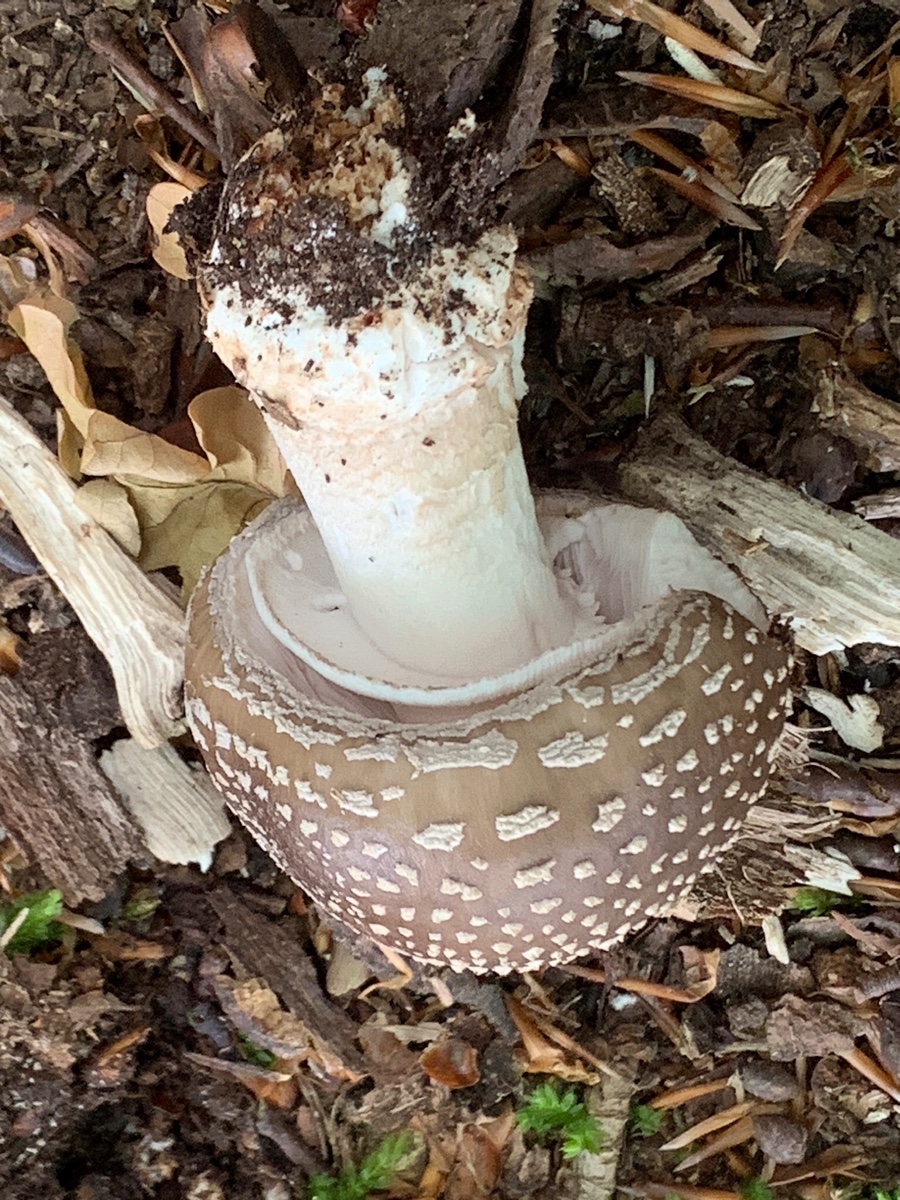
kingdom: Fungi
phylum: Basidiomycota
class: Agaricomycetes
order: Agaricales
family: Amanitaceae
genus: Amanita
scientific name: Amanita
